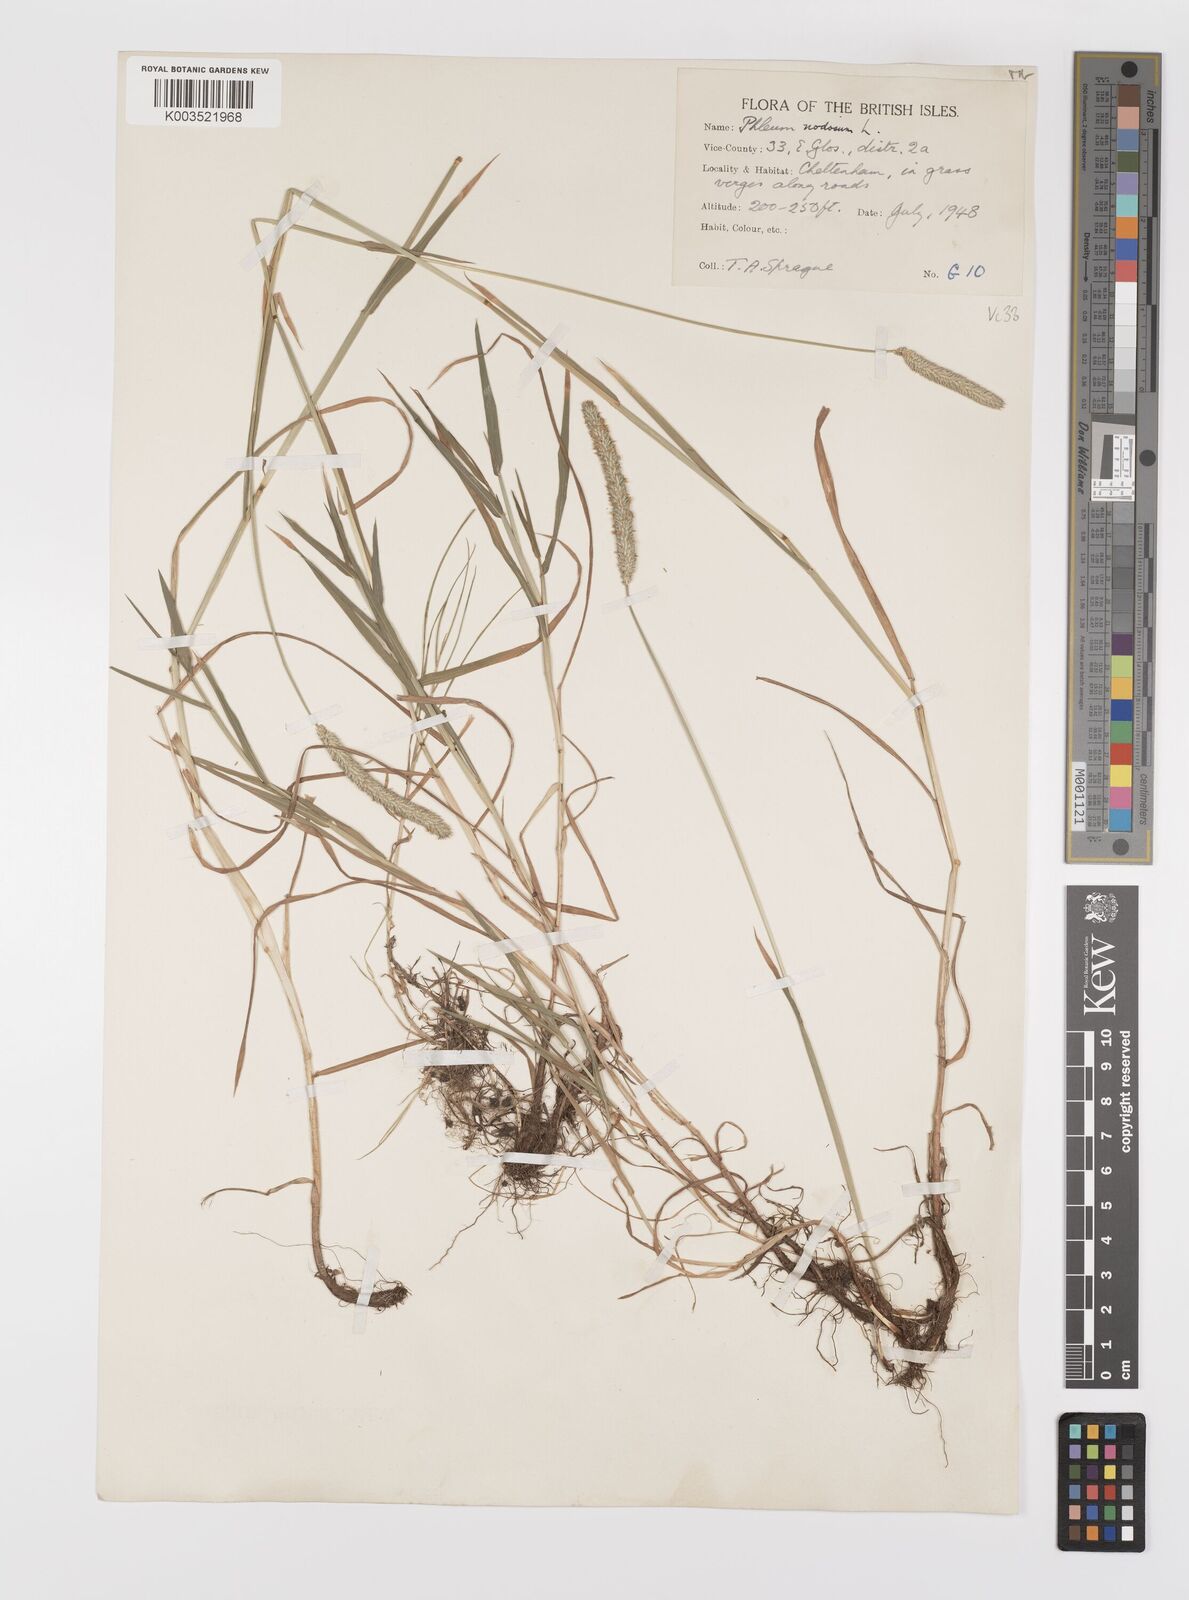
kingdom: Plantae
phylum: Tracheophyta
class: Liliopsida
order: Poales
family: Poaceae
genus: Phleum
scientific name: Phleum bertolonii
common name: Smaller cat's-tail
